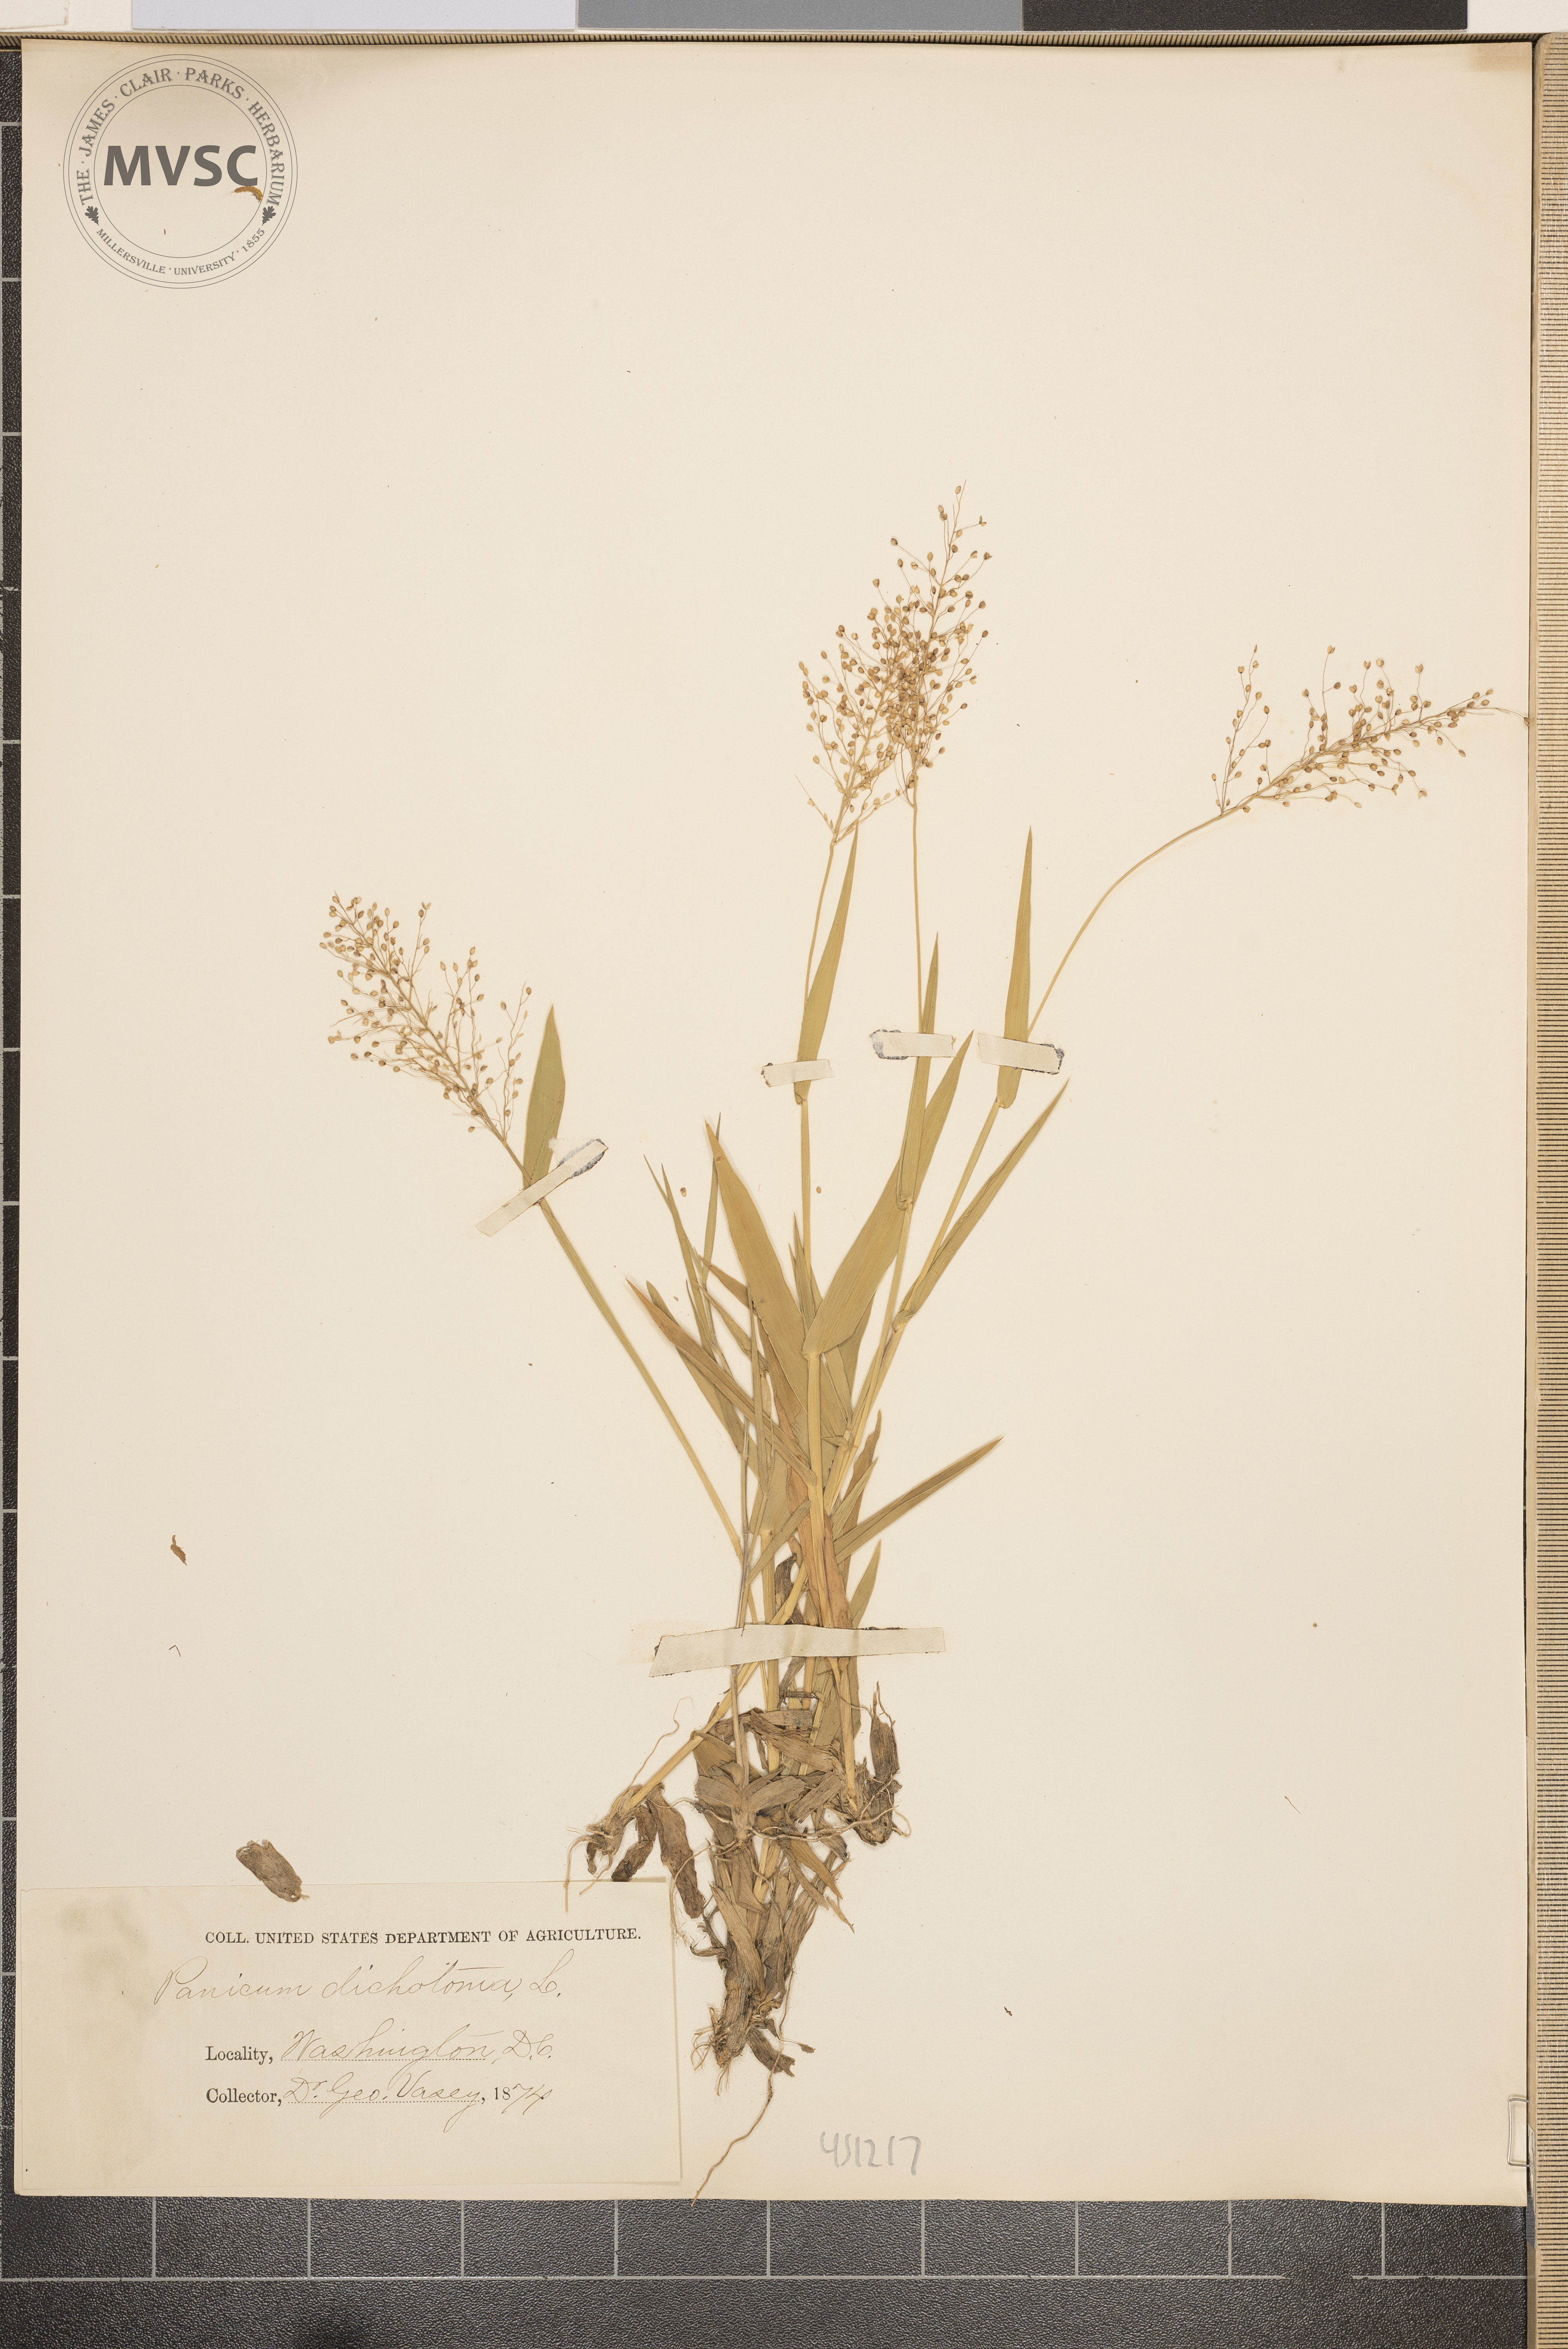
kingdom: Plantae
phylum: Tracheophyta
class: Liliopsida
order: Poales
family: Poaceae
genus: Dichanthelium
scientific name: Dichanthelium dichotomum
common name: Cypress panicgrass
